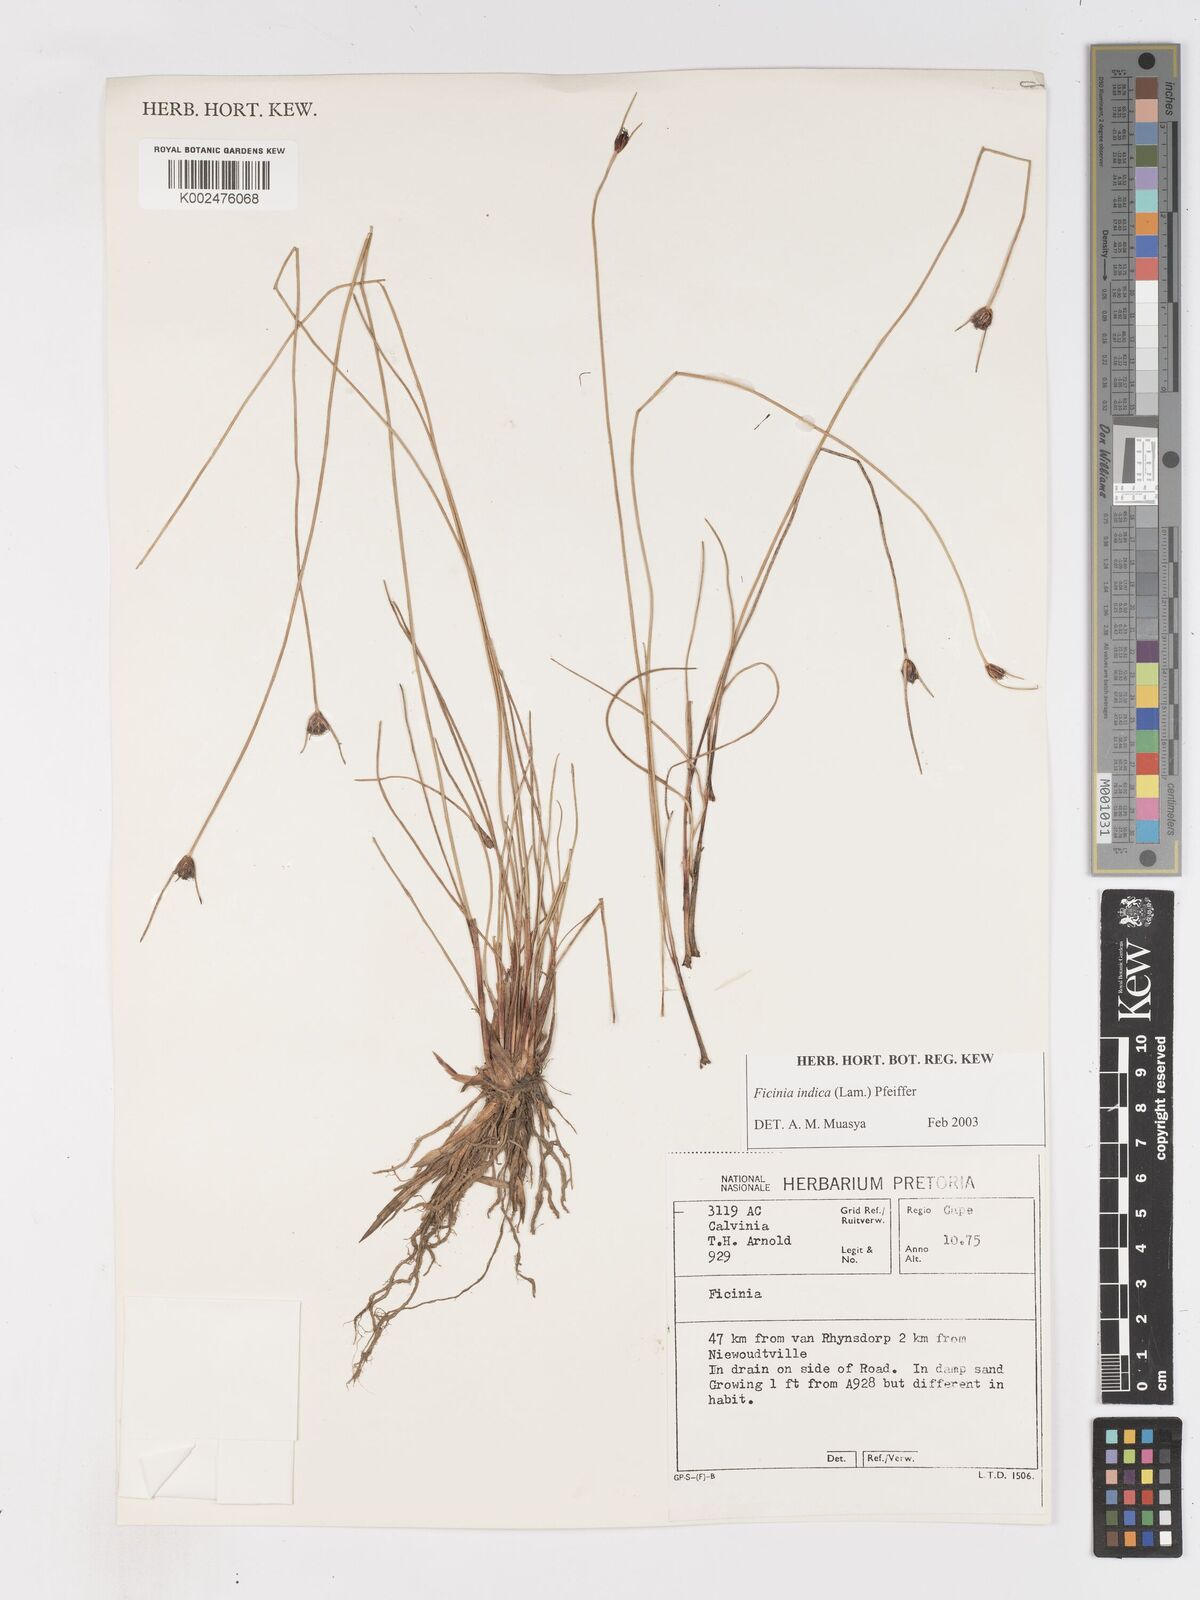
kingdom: Plantae
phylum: Tracheophyta
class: Liliopsida
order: Poales
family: Cyperaceae
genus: Ficinia
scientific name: Ficinia indica
